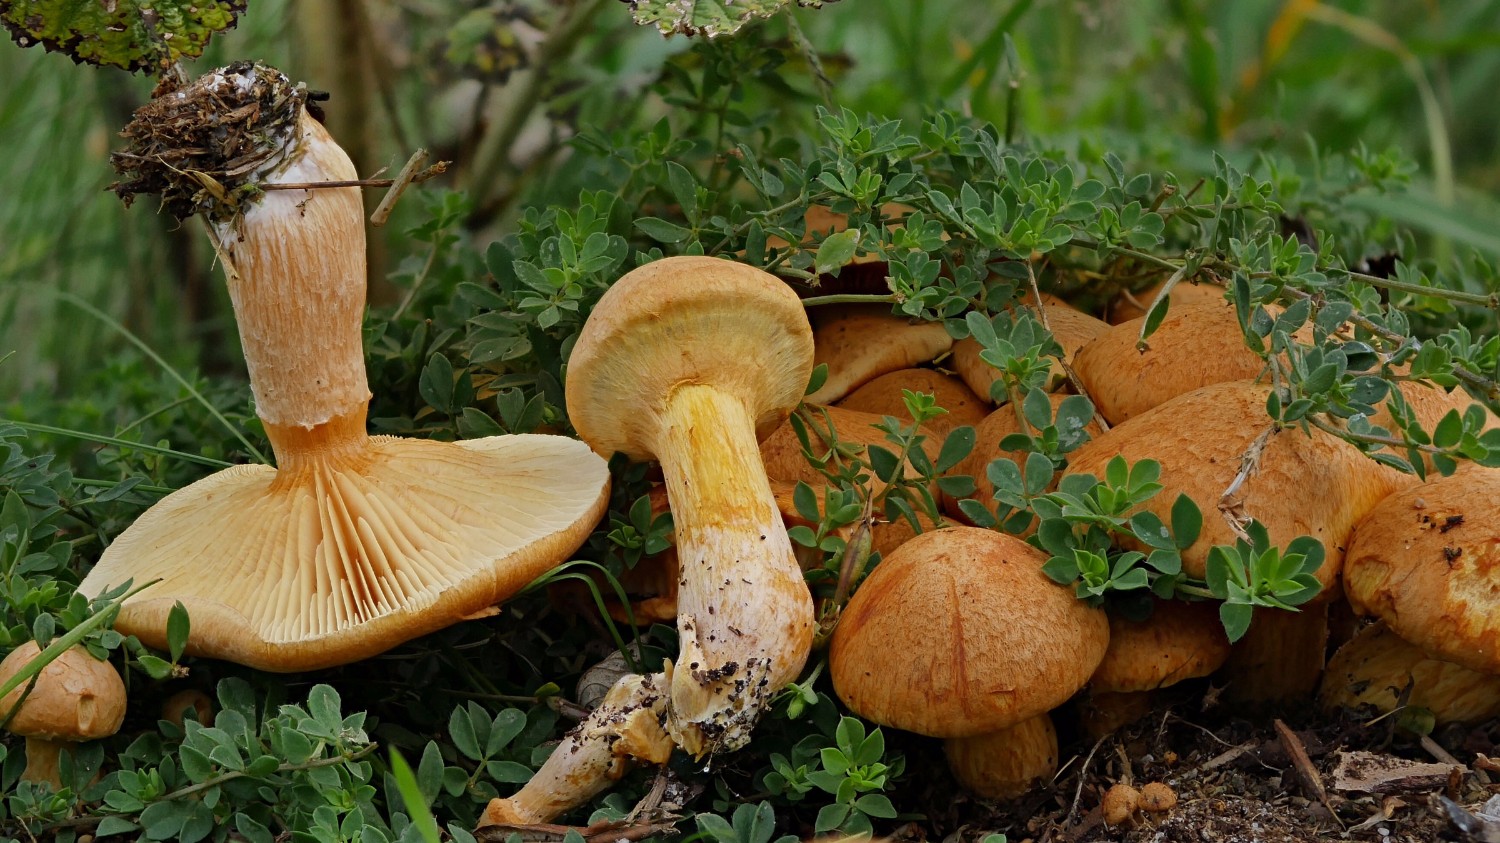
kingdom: Fungi
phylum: Basidiomycota
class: Agaricomycetes
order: Agaricales
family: Hymenogastraceae
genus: Gymnopilus
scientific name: Gymnopilus spectabilis
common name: fibret flammehat
